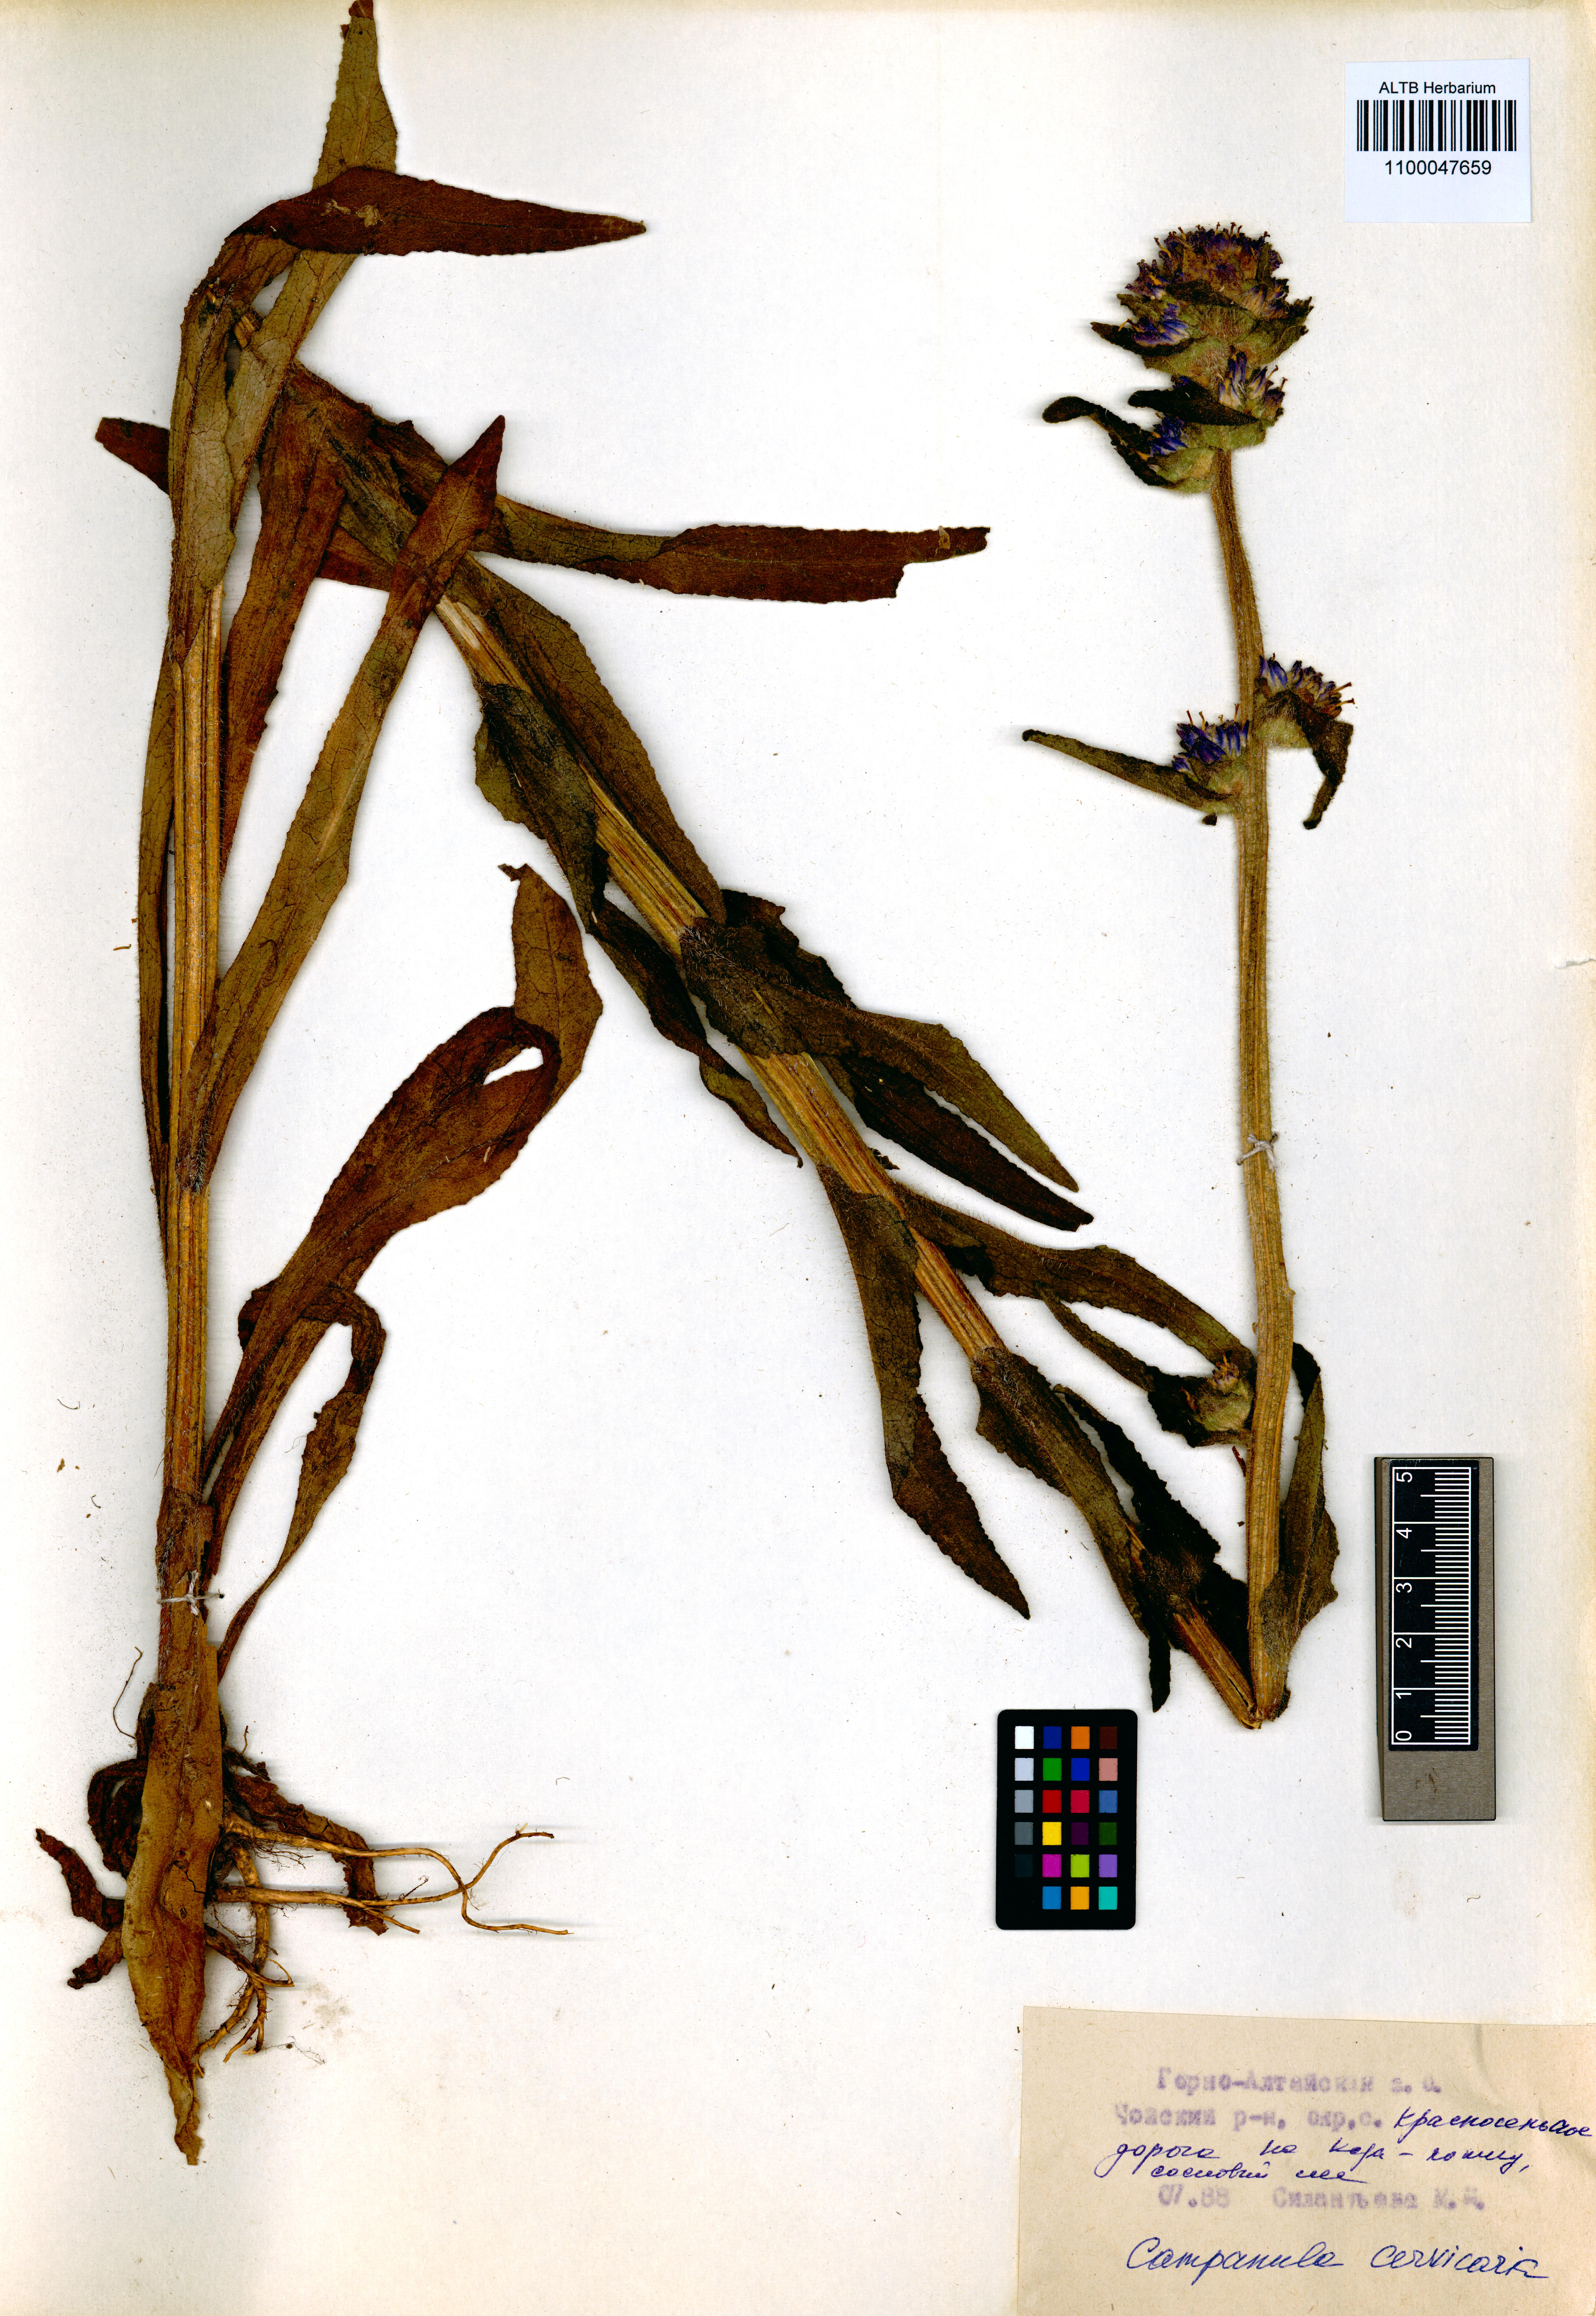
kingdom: Plantae
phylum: Tracheophyta
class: Magnoliopsida
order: Asterales
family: Campanulaceae
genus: Campanula
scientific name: Campanula cervicaria
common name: Bristly bellflower
